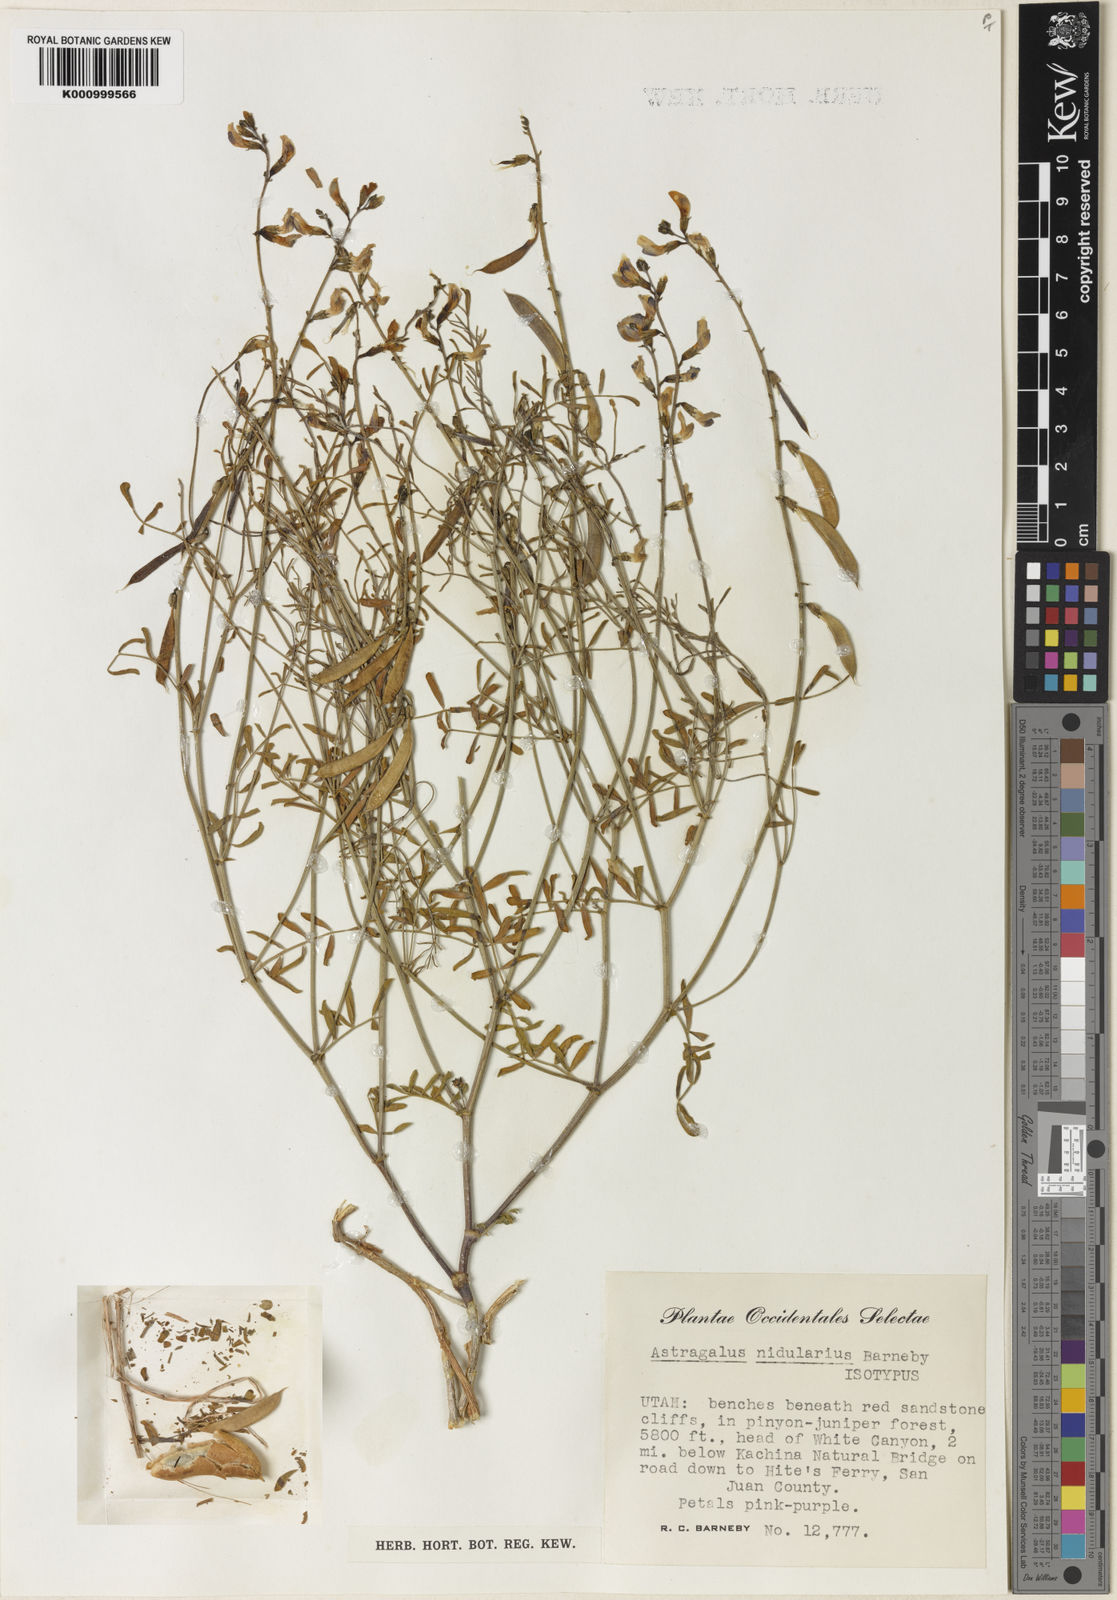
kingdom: Plantae
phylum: Tracheophyta
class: Magnoliopsida
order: Fabales
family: Fabaceae
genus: Astragalus
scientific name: Astragalus nidularius
